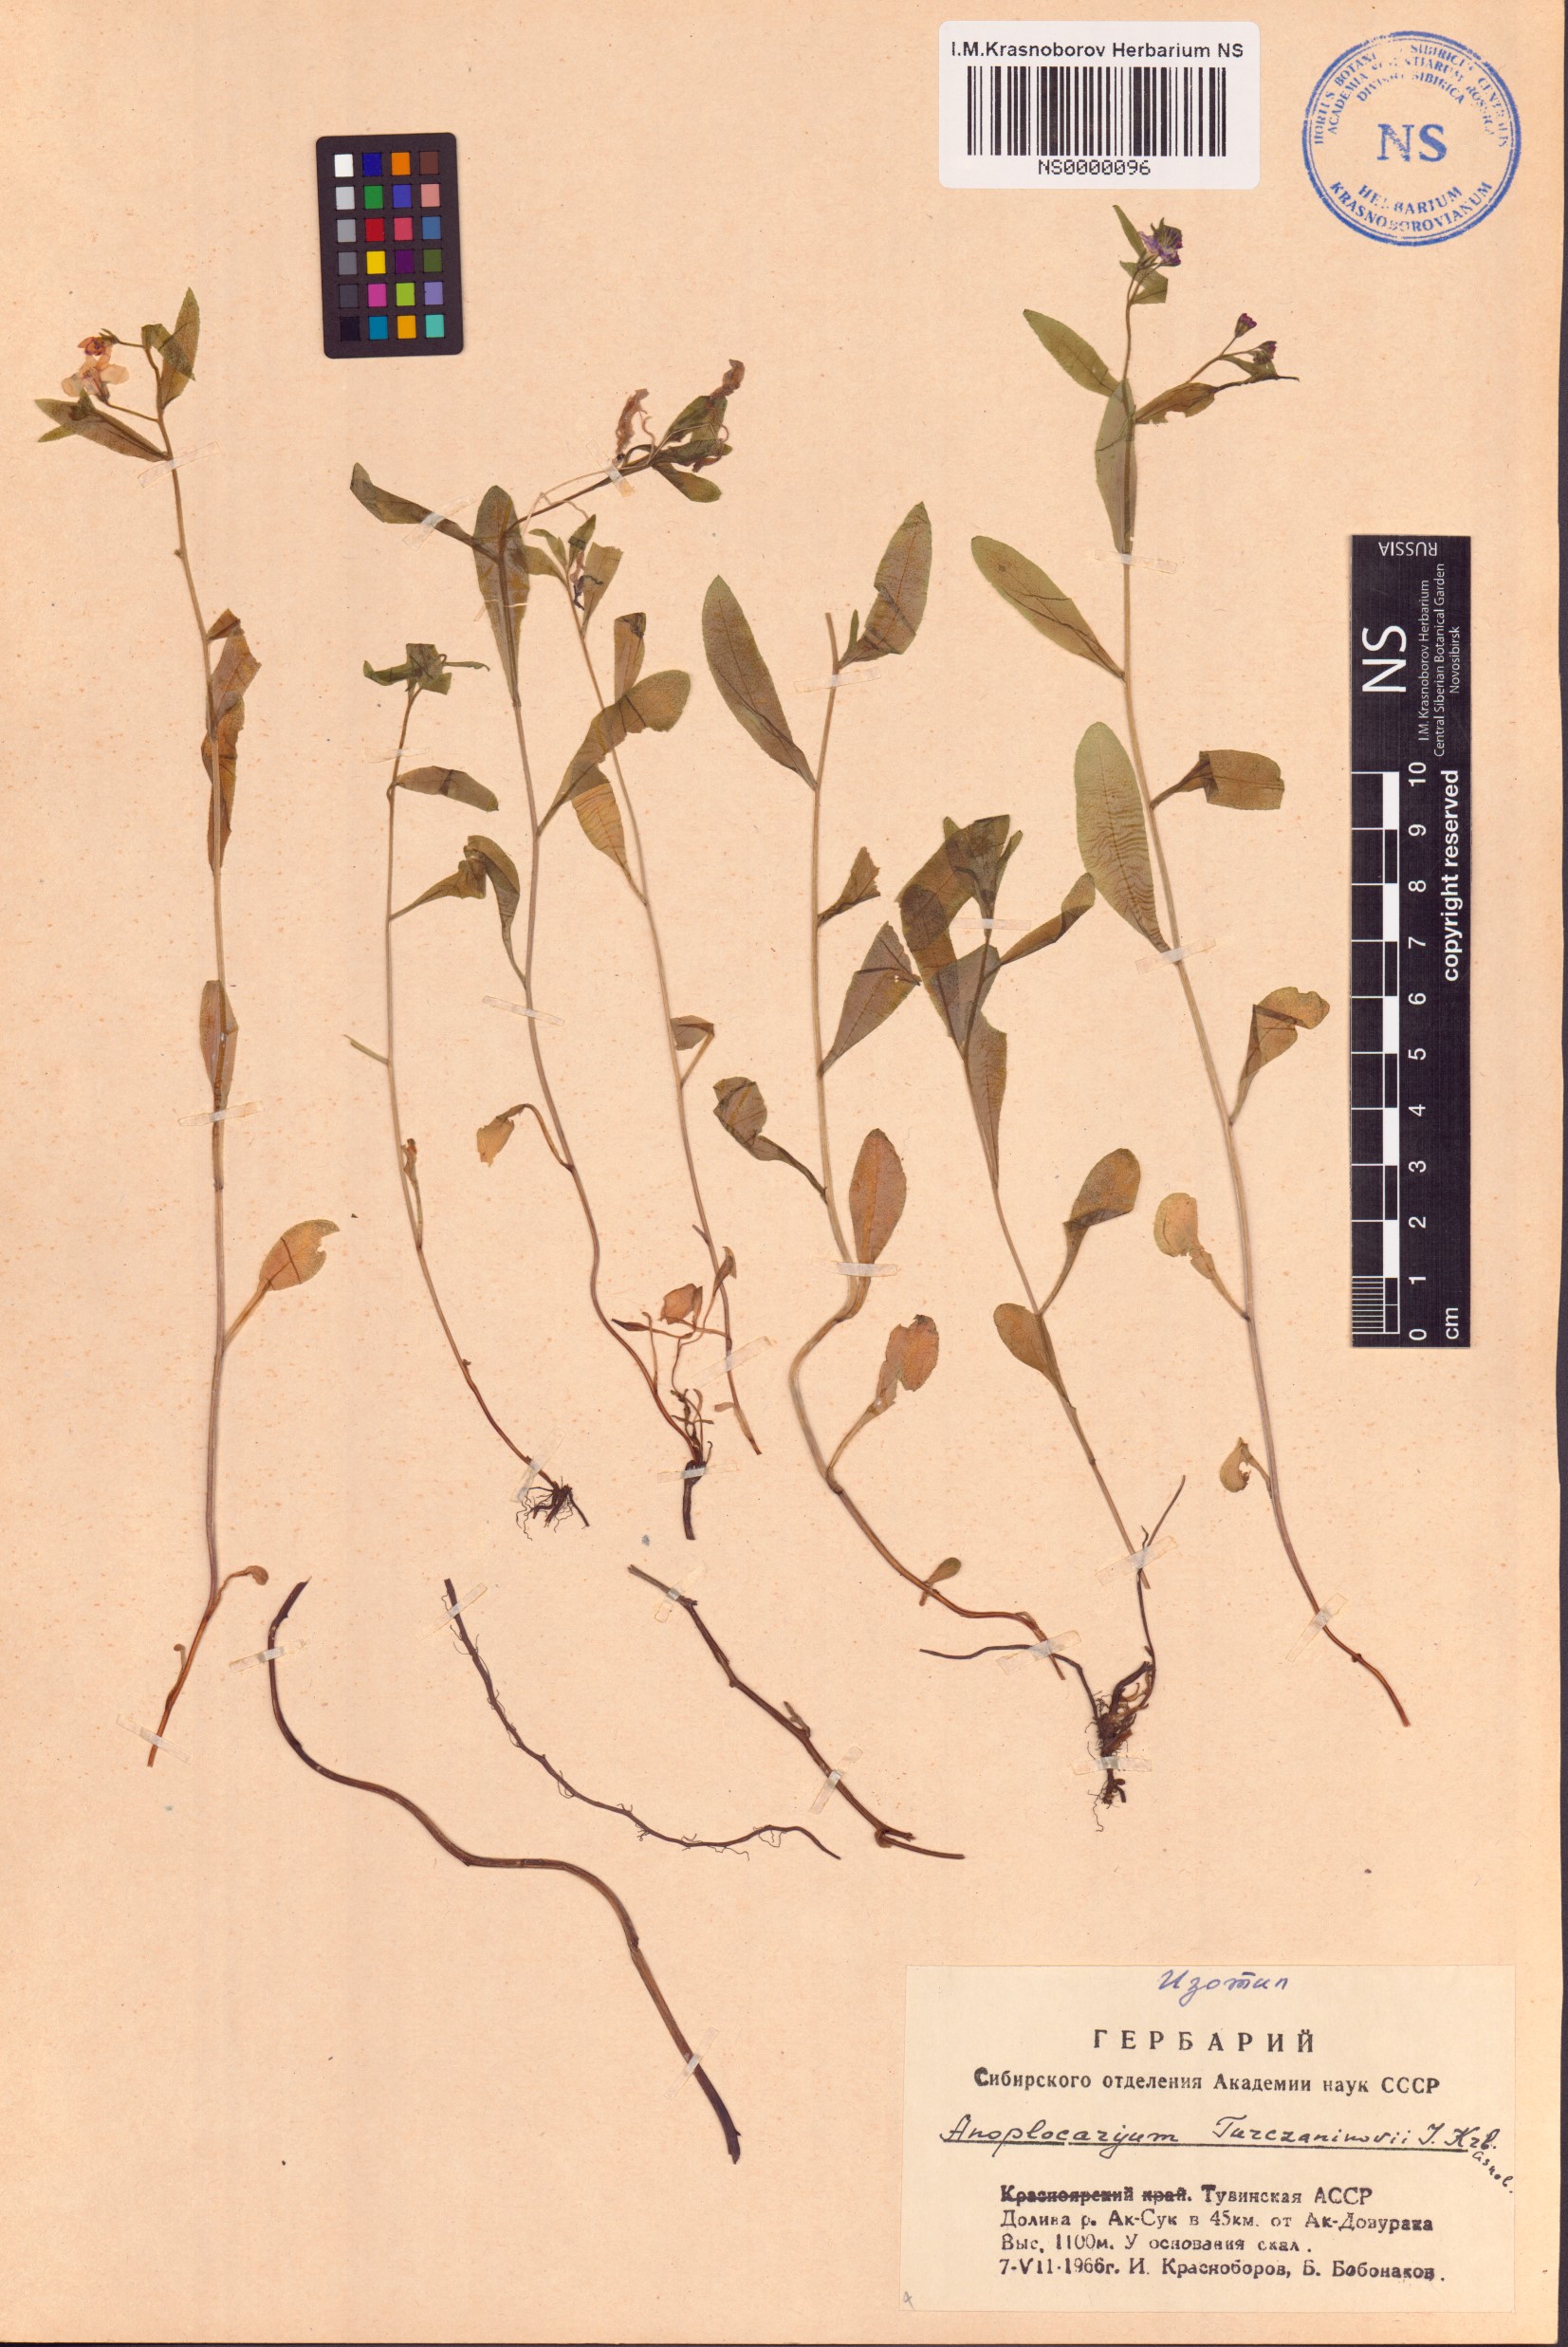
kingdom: Plantae
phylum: Tracheophyta
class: Magnoliopsida
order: Boraginales
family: Boraginaceae
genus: Anoplocaryum
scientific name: Anoplocaryum turczaninovii
